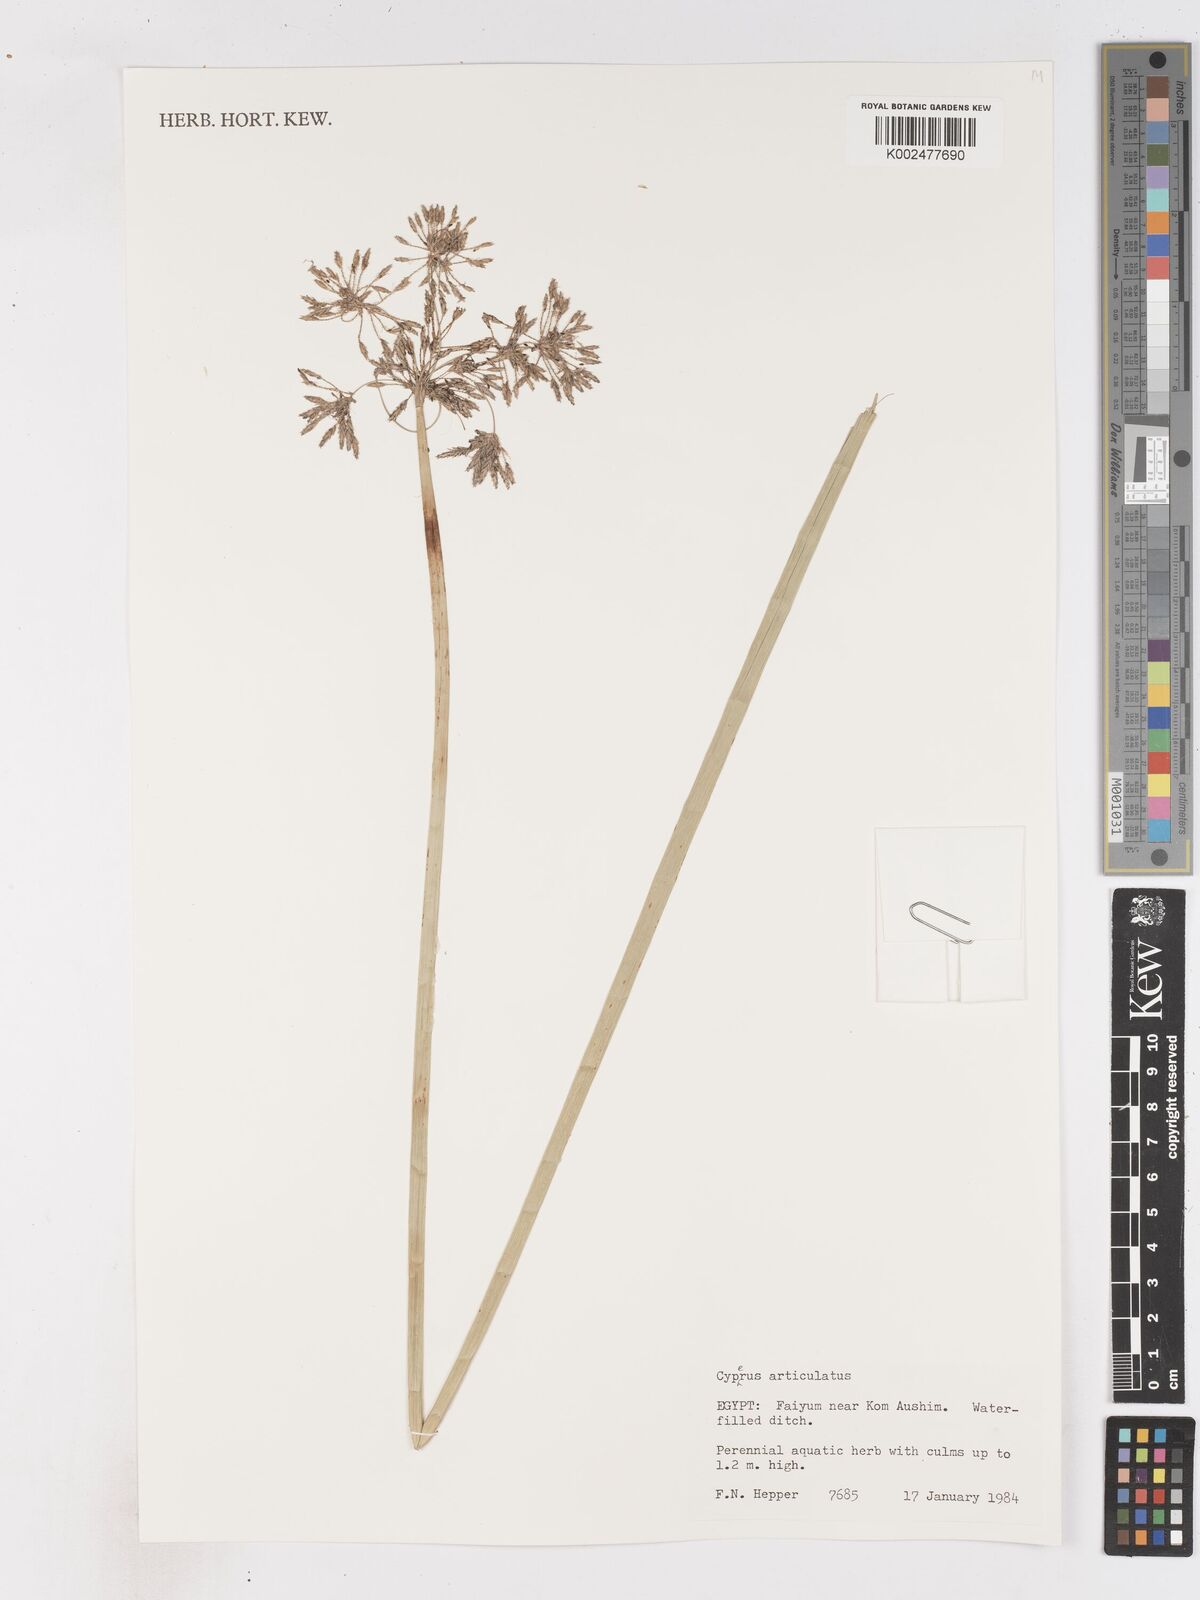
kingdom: Plantae
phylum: Tracheophyta
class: Liliopsida
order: Poales
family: Cyperaceae
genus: Cyperus
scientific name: Cyperus articulatus
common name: Jointed flatsedge
